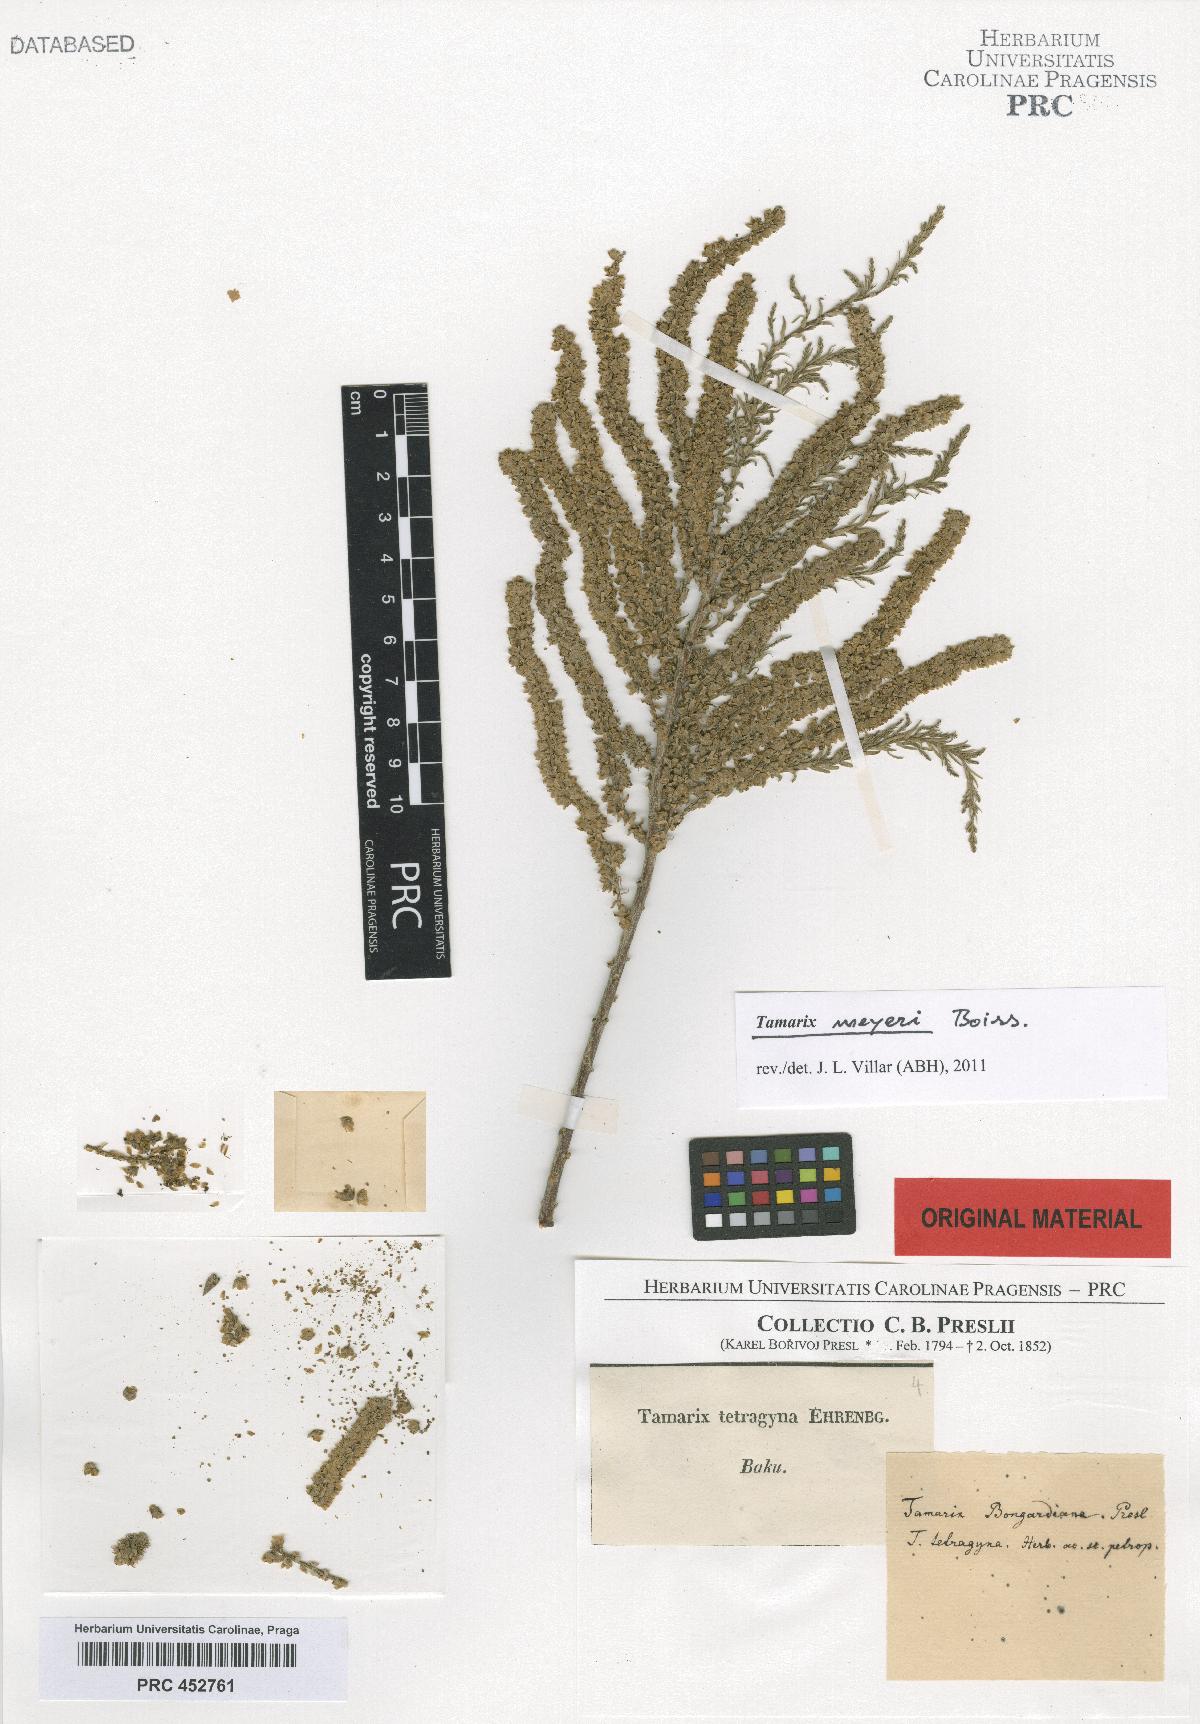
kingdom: Plantae
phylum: Tracheophyta
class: Magnoliopsida
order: Caryophyllales
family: Tamaricaceae
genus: Tamarix
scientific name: Tamarix
